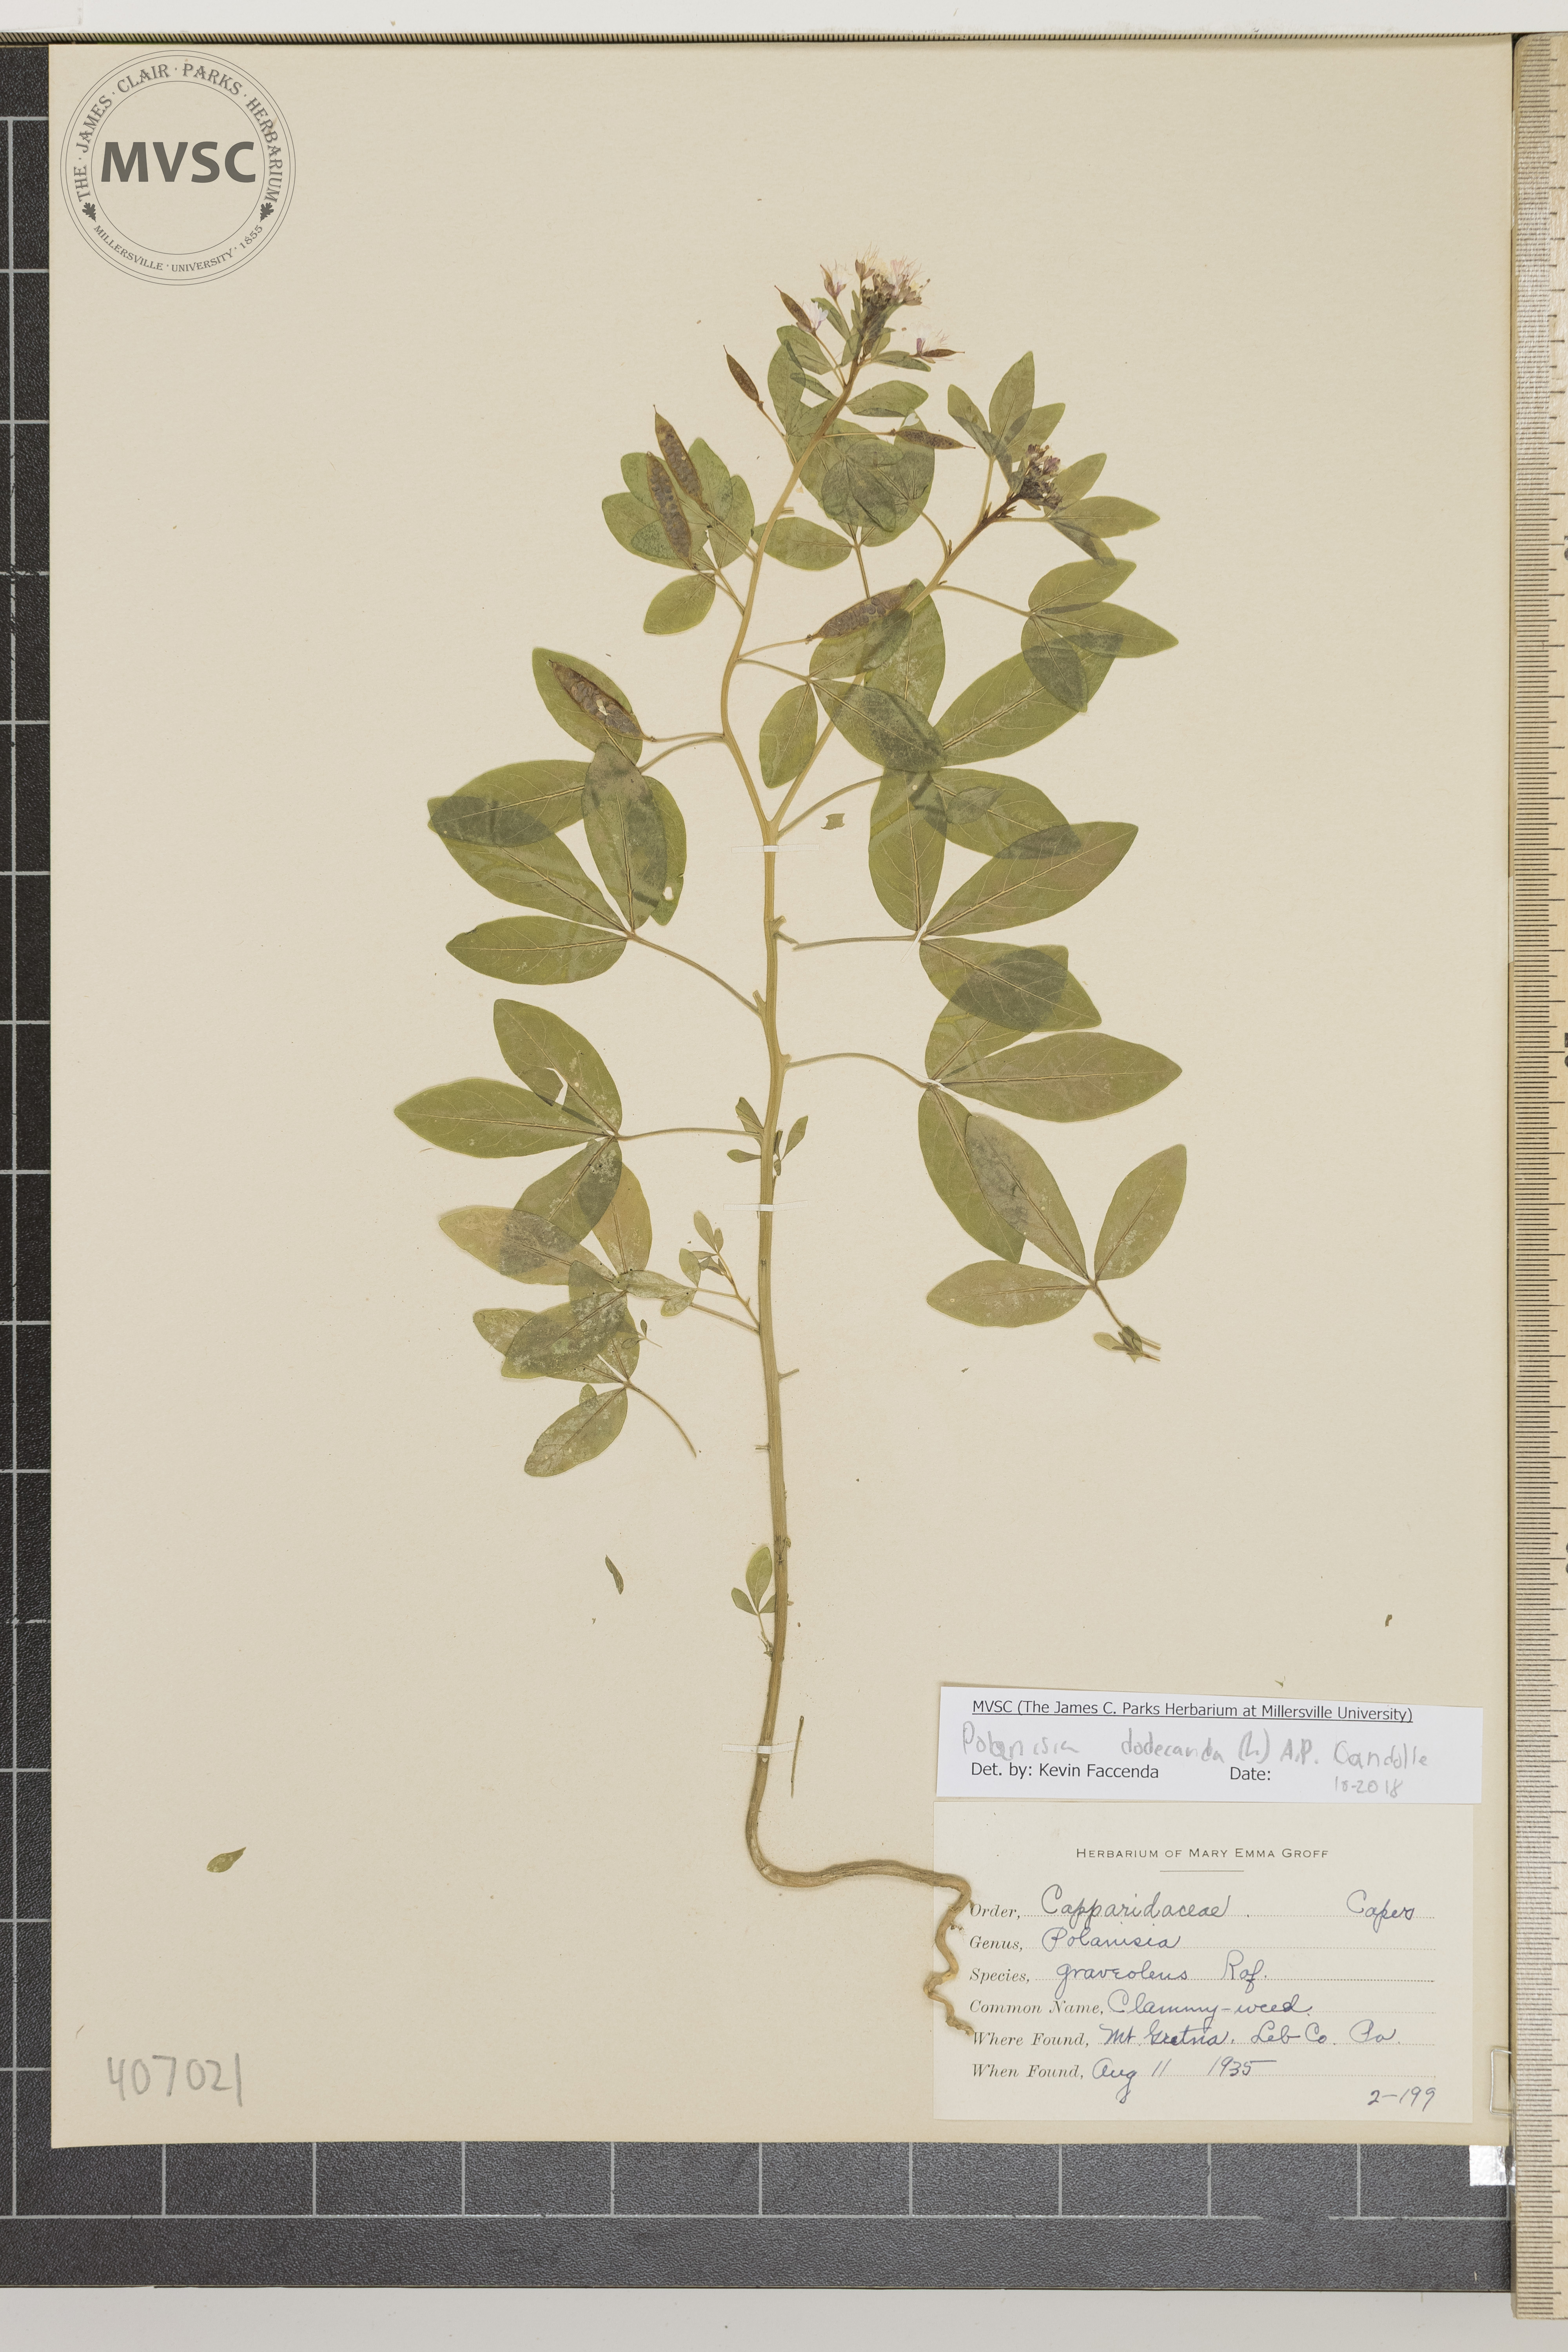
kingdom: Plantae
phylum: Tracheophyta
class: Magnoliopsida
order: Brassicales
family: Cleomaceae
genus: Polanisia
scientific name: Polanisia dodecandra
